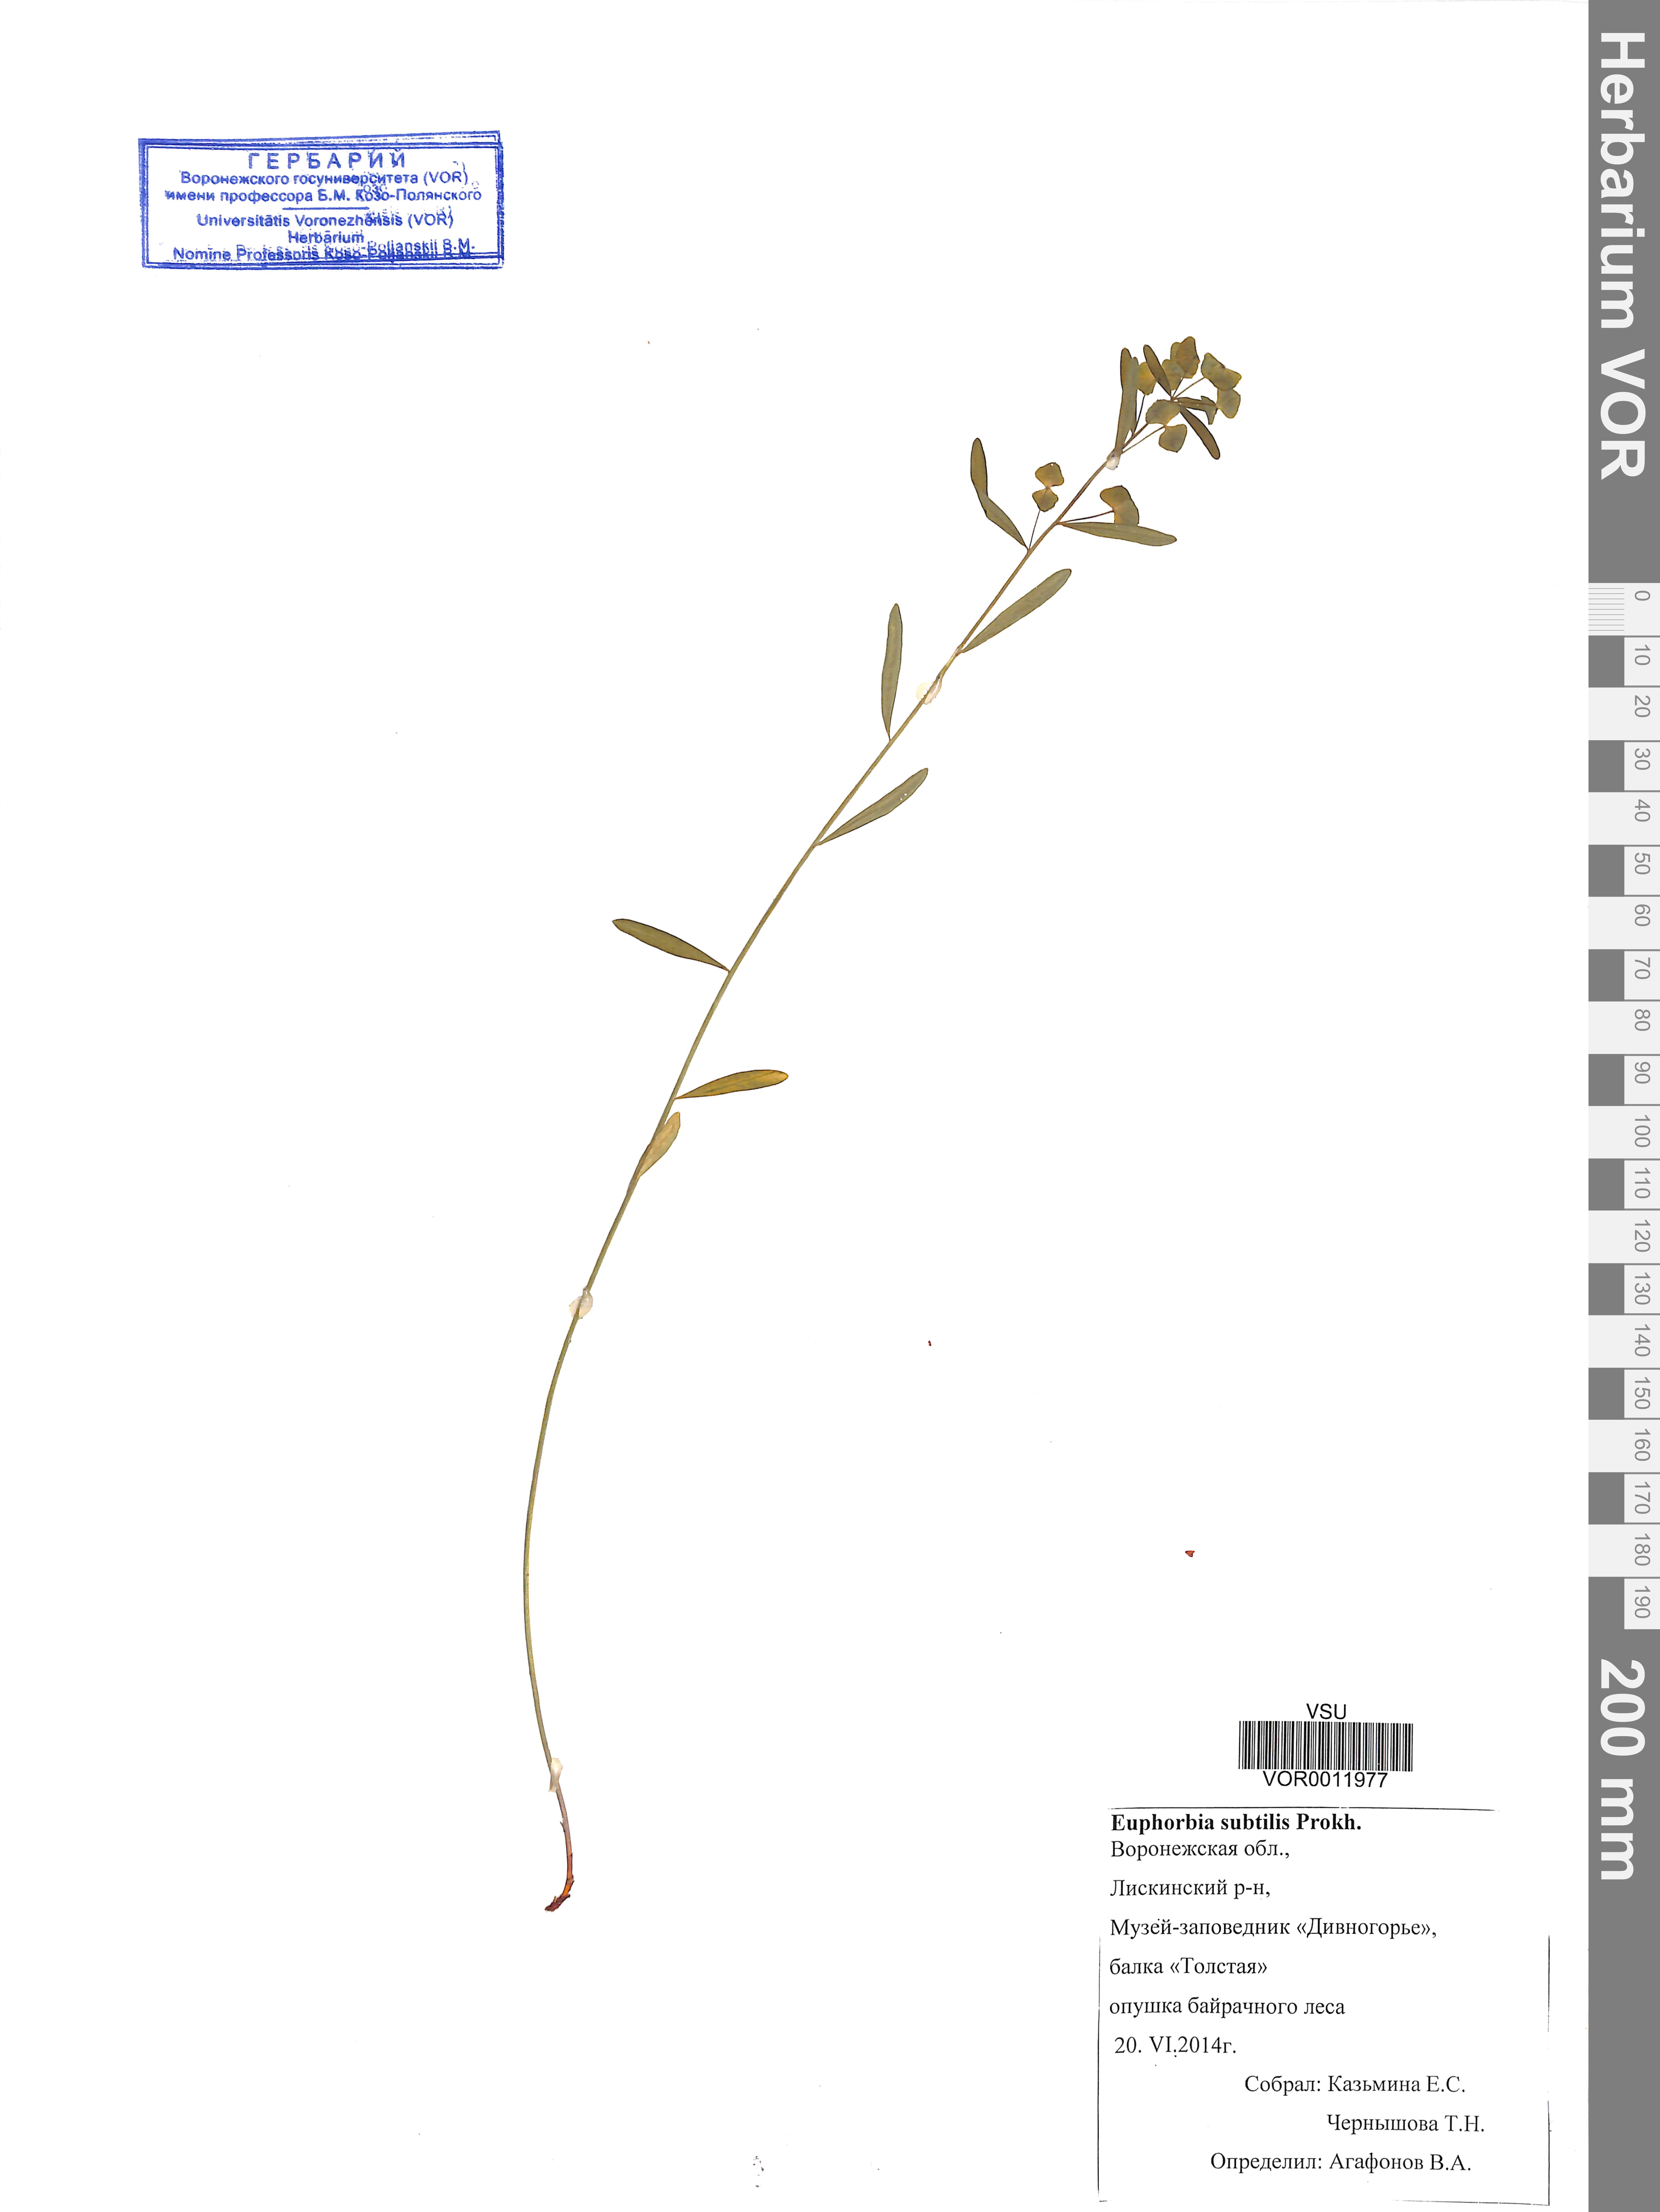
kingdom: Plantae
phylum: Tracheophyta
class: Magnoliopsida
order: Malpighiales
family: Euphorbiaceae
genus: Euphorbia
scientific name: Euphorbia microcarpa
